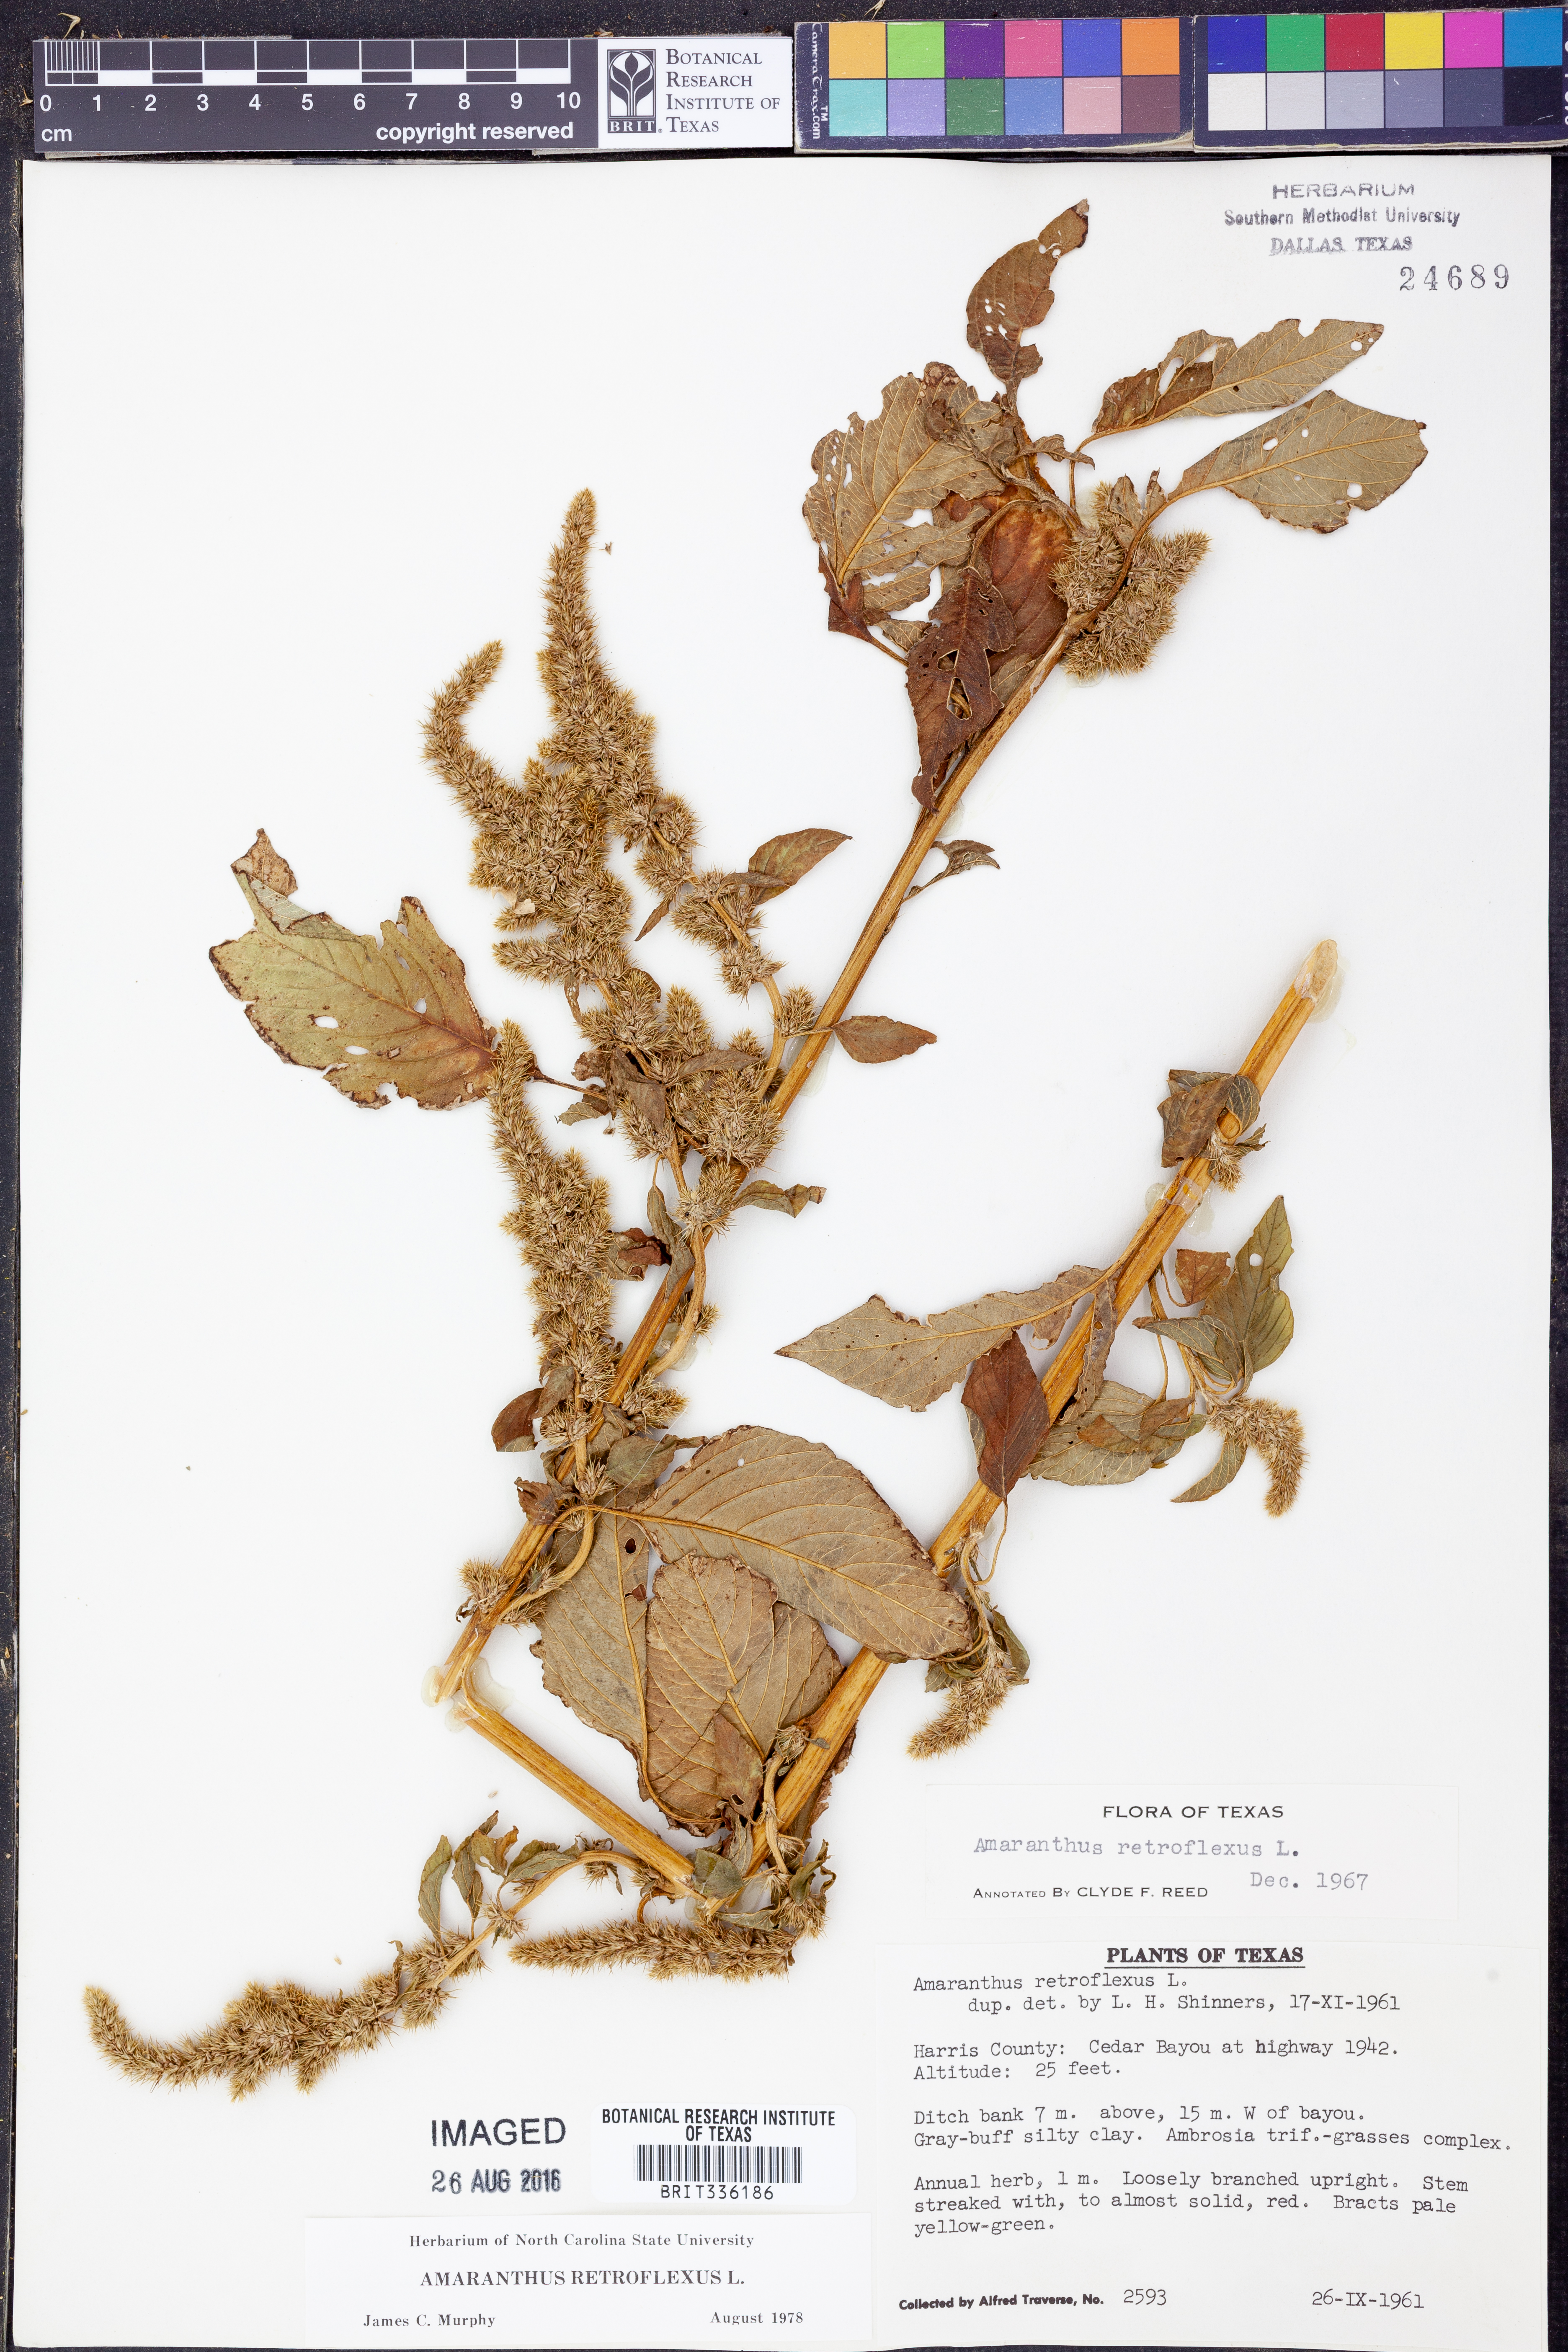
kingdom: Plantae
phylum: Tracheophyta
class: Magnoliopsida
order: Caryophyllales
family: Amaranthaceae
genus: Amaranthus
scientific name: Amaranthus retroflexus
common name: Redroot amaranth
